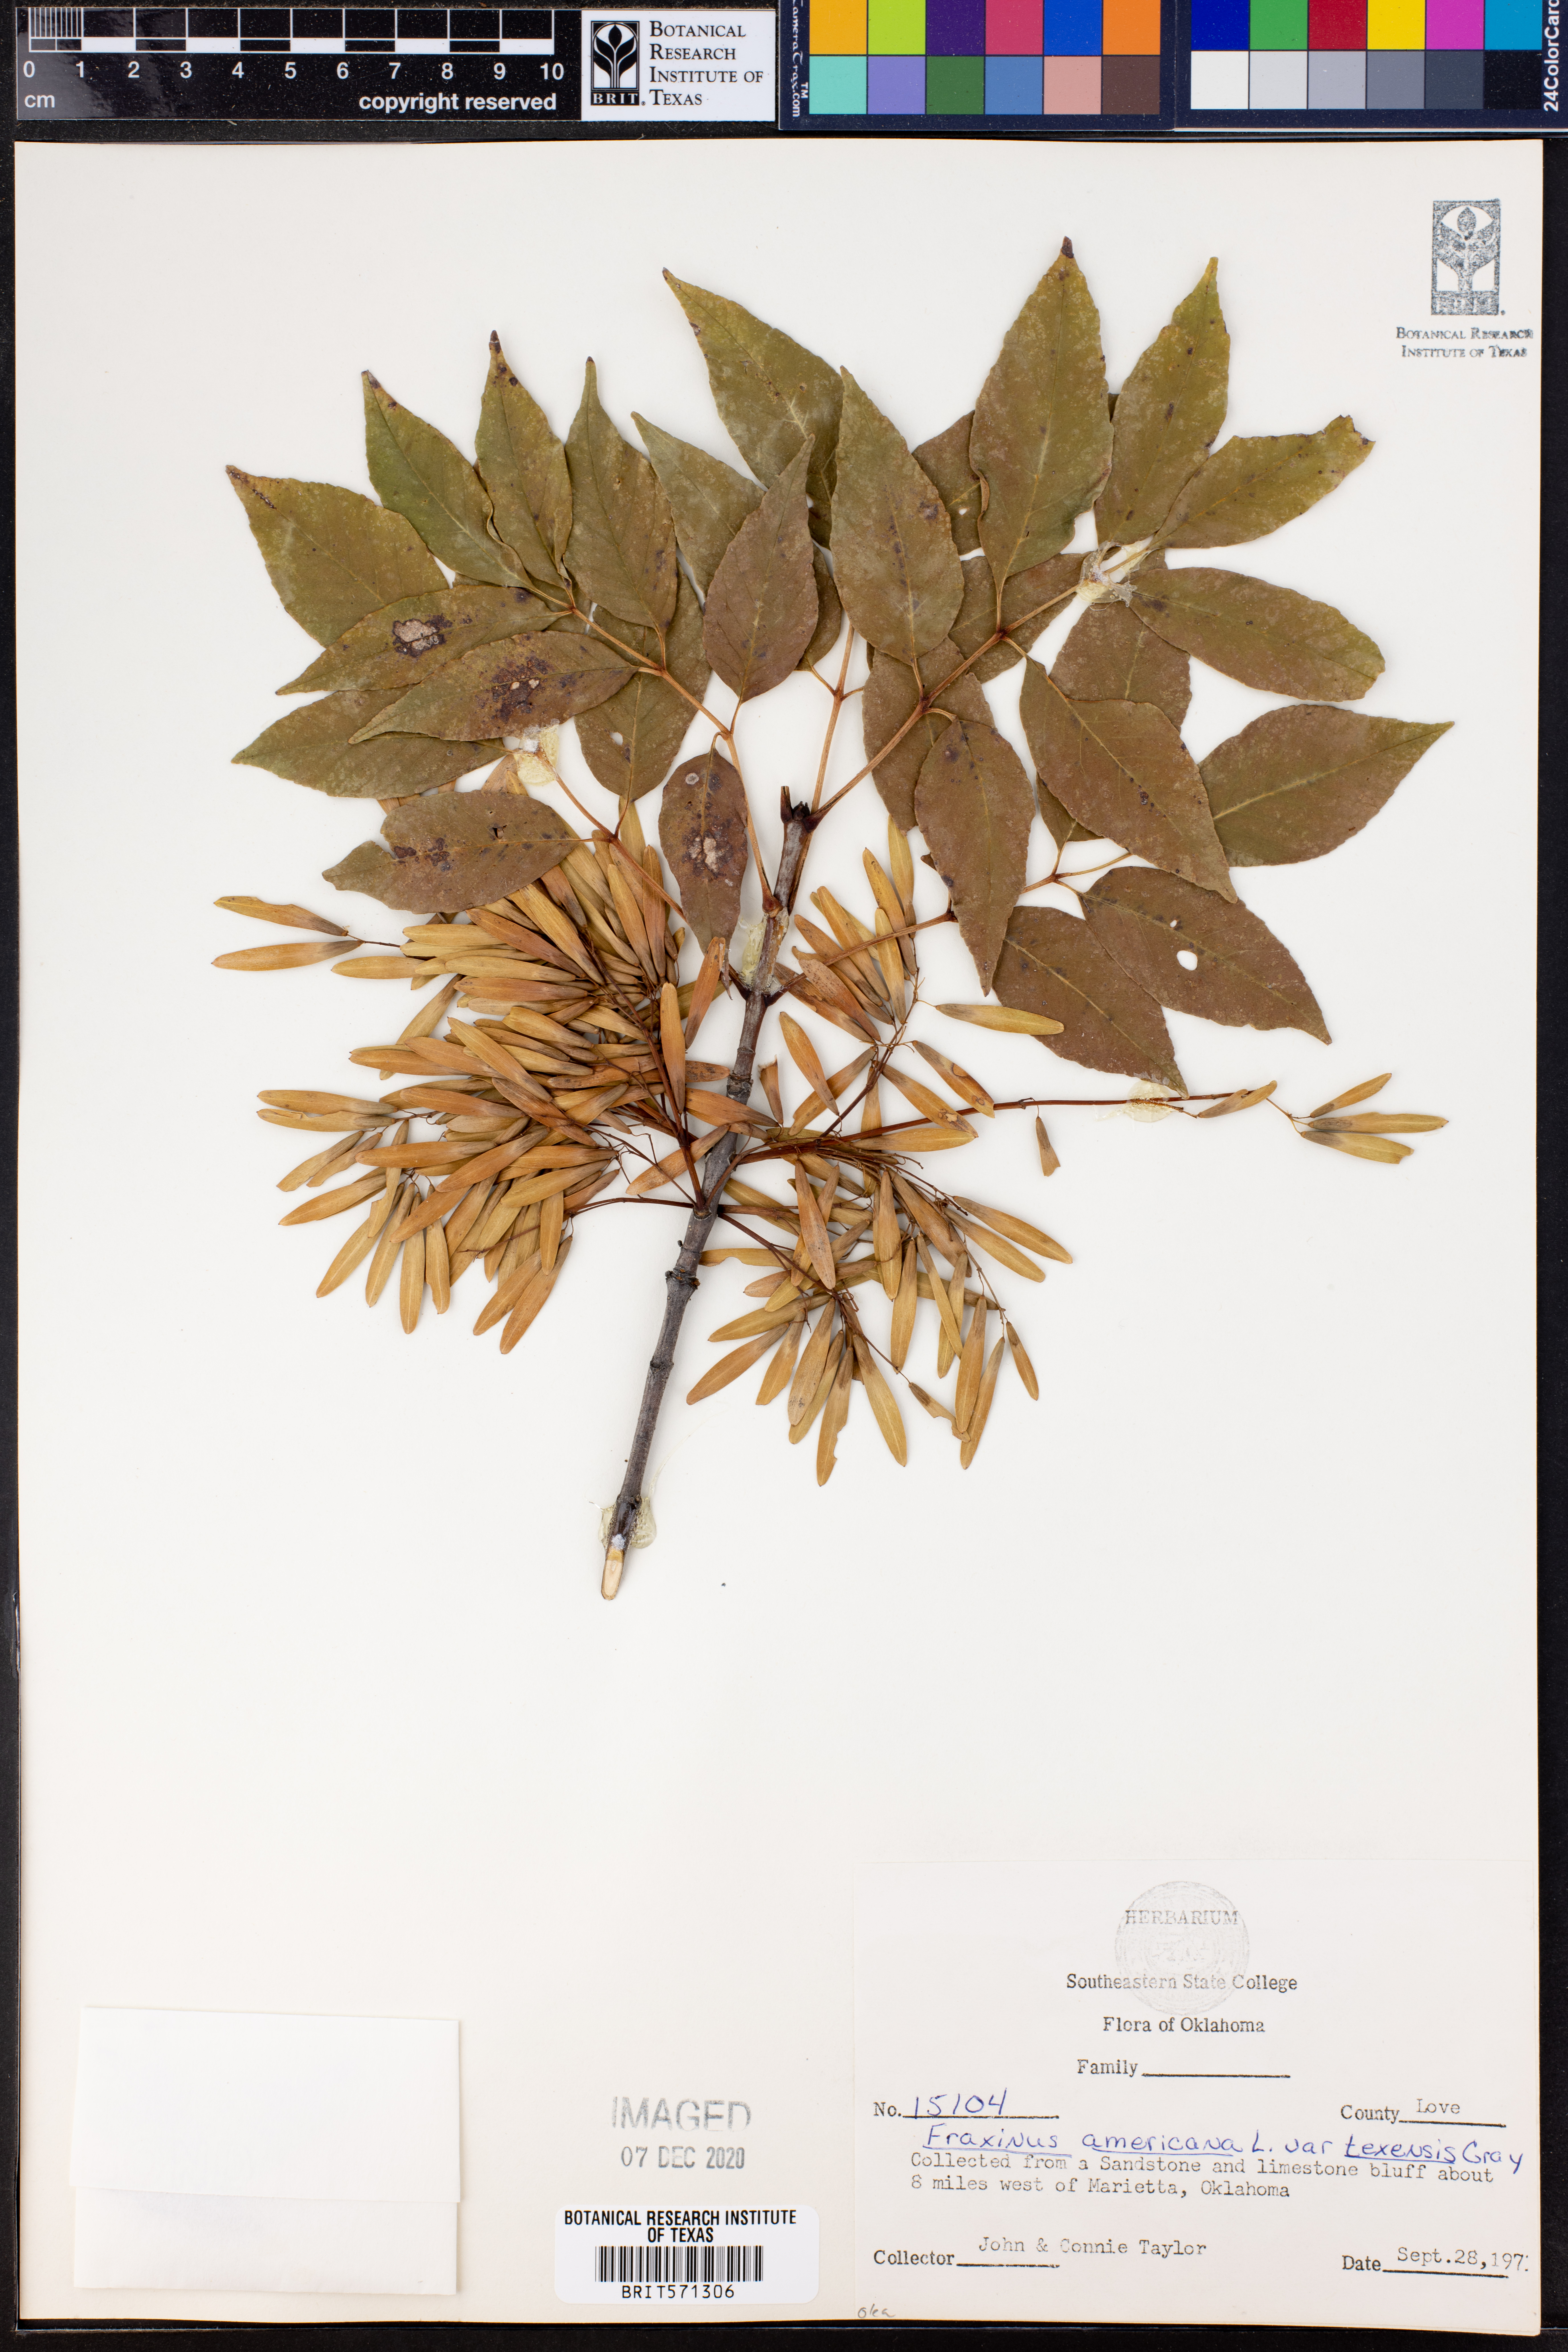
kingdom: Plantae
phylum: Tracheophyta
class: Magnoliopsida
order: Lamiales
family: Oleaceae
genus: Fraxinus
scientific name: Fraxinus albicans
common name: Texas ash
